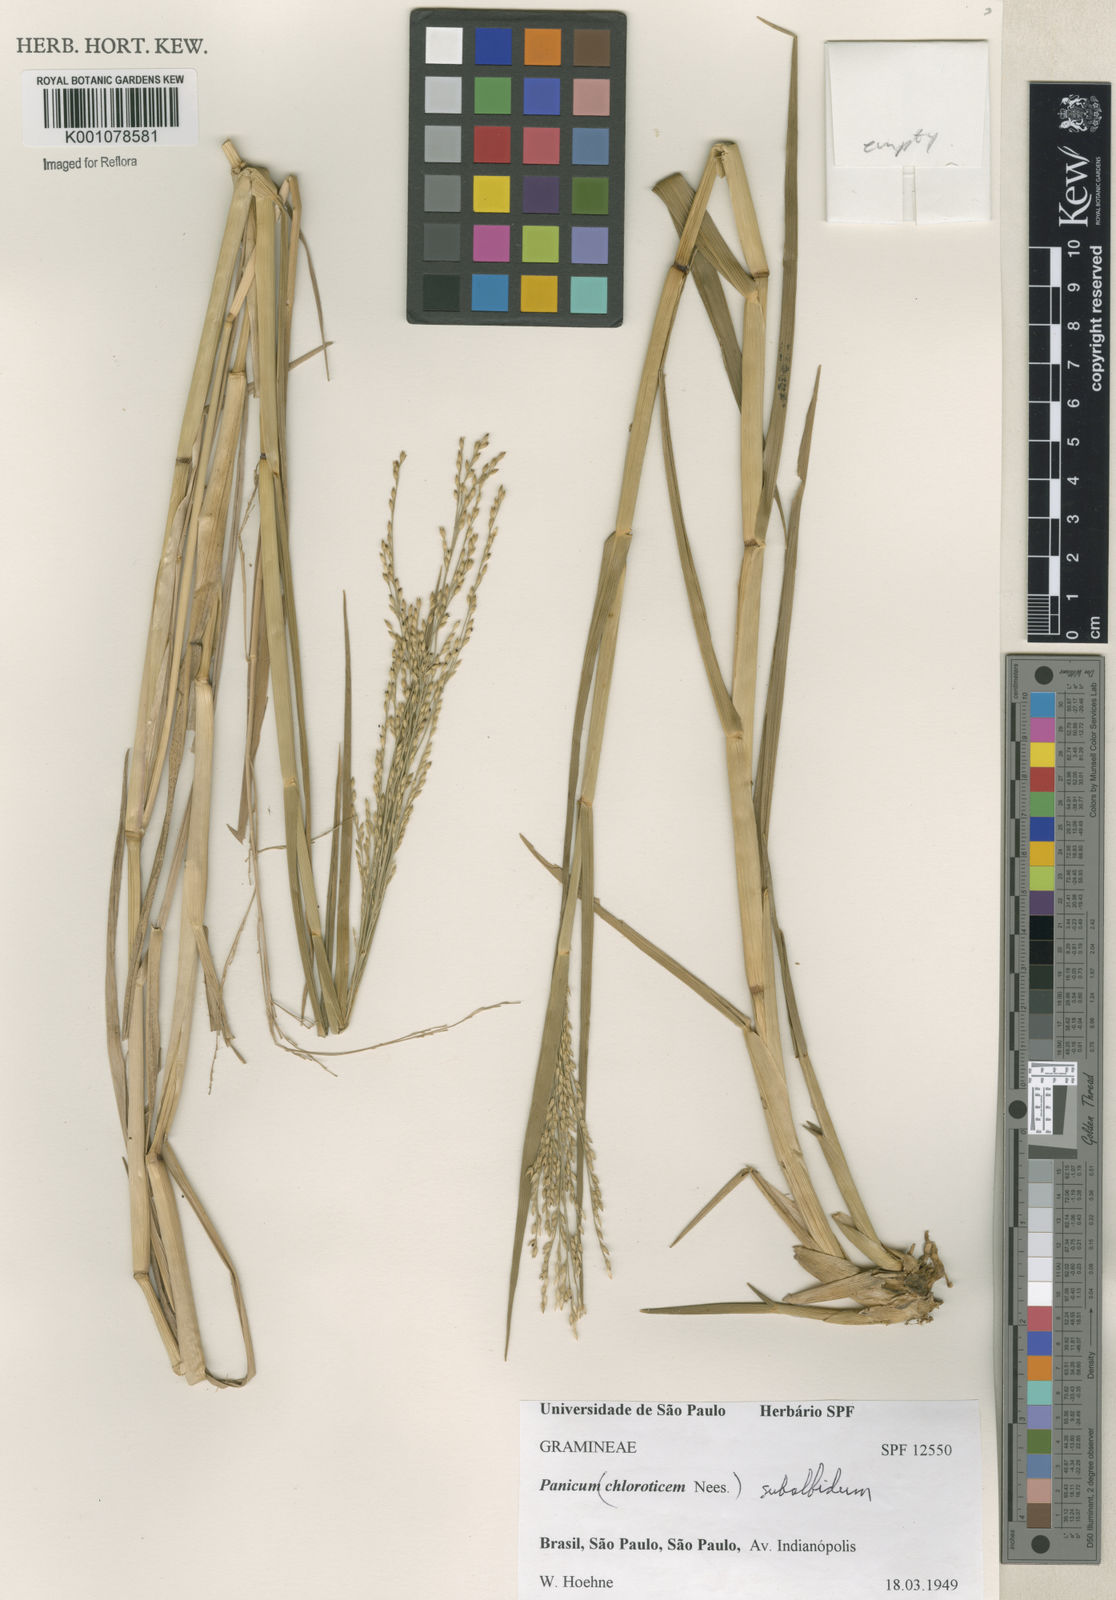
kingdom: Plantae
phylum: Tracheophyta
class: Liliopsida
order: Poales
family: Poaceae
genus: Panicum
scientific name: Panicum dichotomiflorum
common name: Autumn millet
